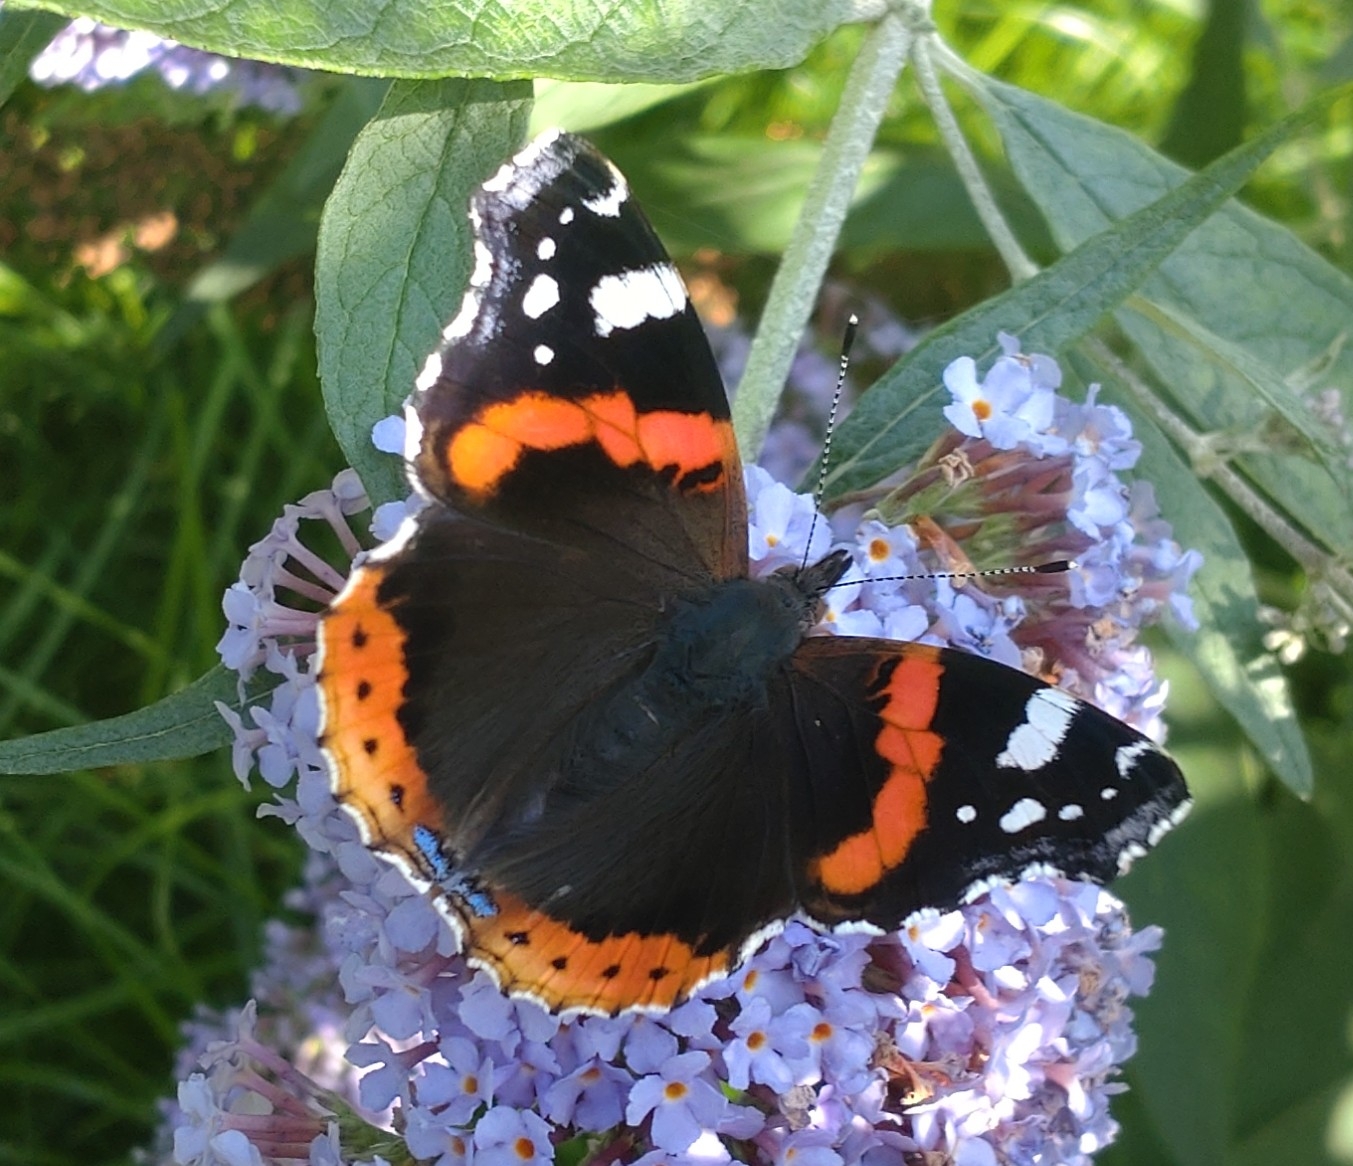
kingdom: Animalia
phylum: Arthropoda
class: Insecta
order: Lepidoptera
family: Nymphalidae
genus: Vanessa
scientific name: Vanessa atalanta
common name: Admiral
